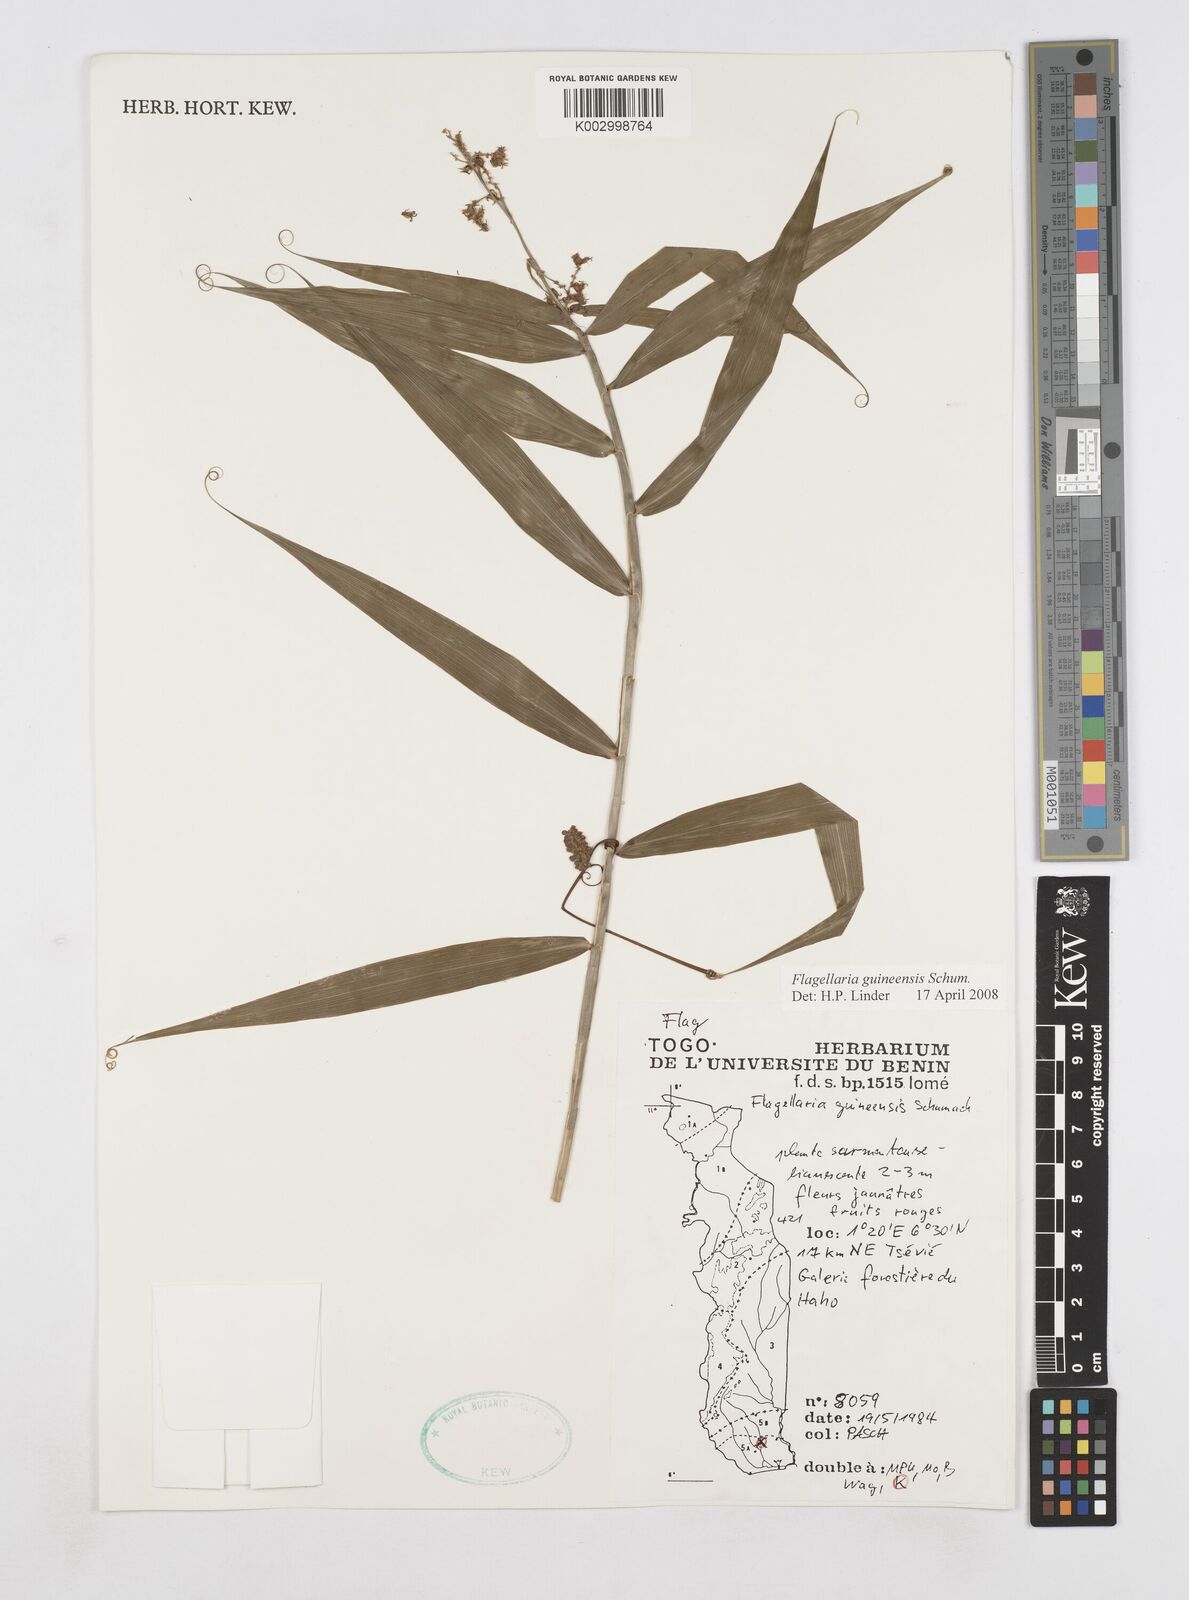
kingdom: Plantae
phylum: Tracheophyta
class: Liliopsida
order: Poales
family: Flagellariaceae
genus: Flagellaria
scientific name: Flagellaria guineensis
